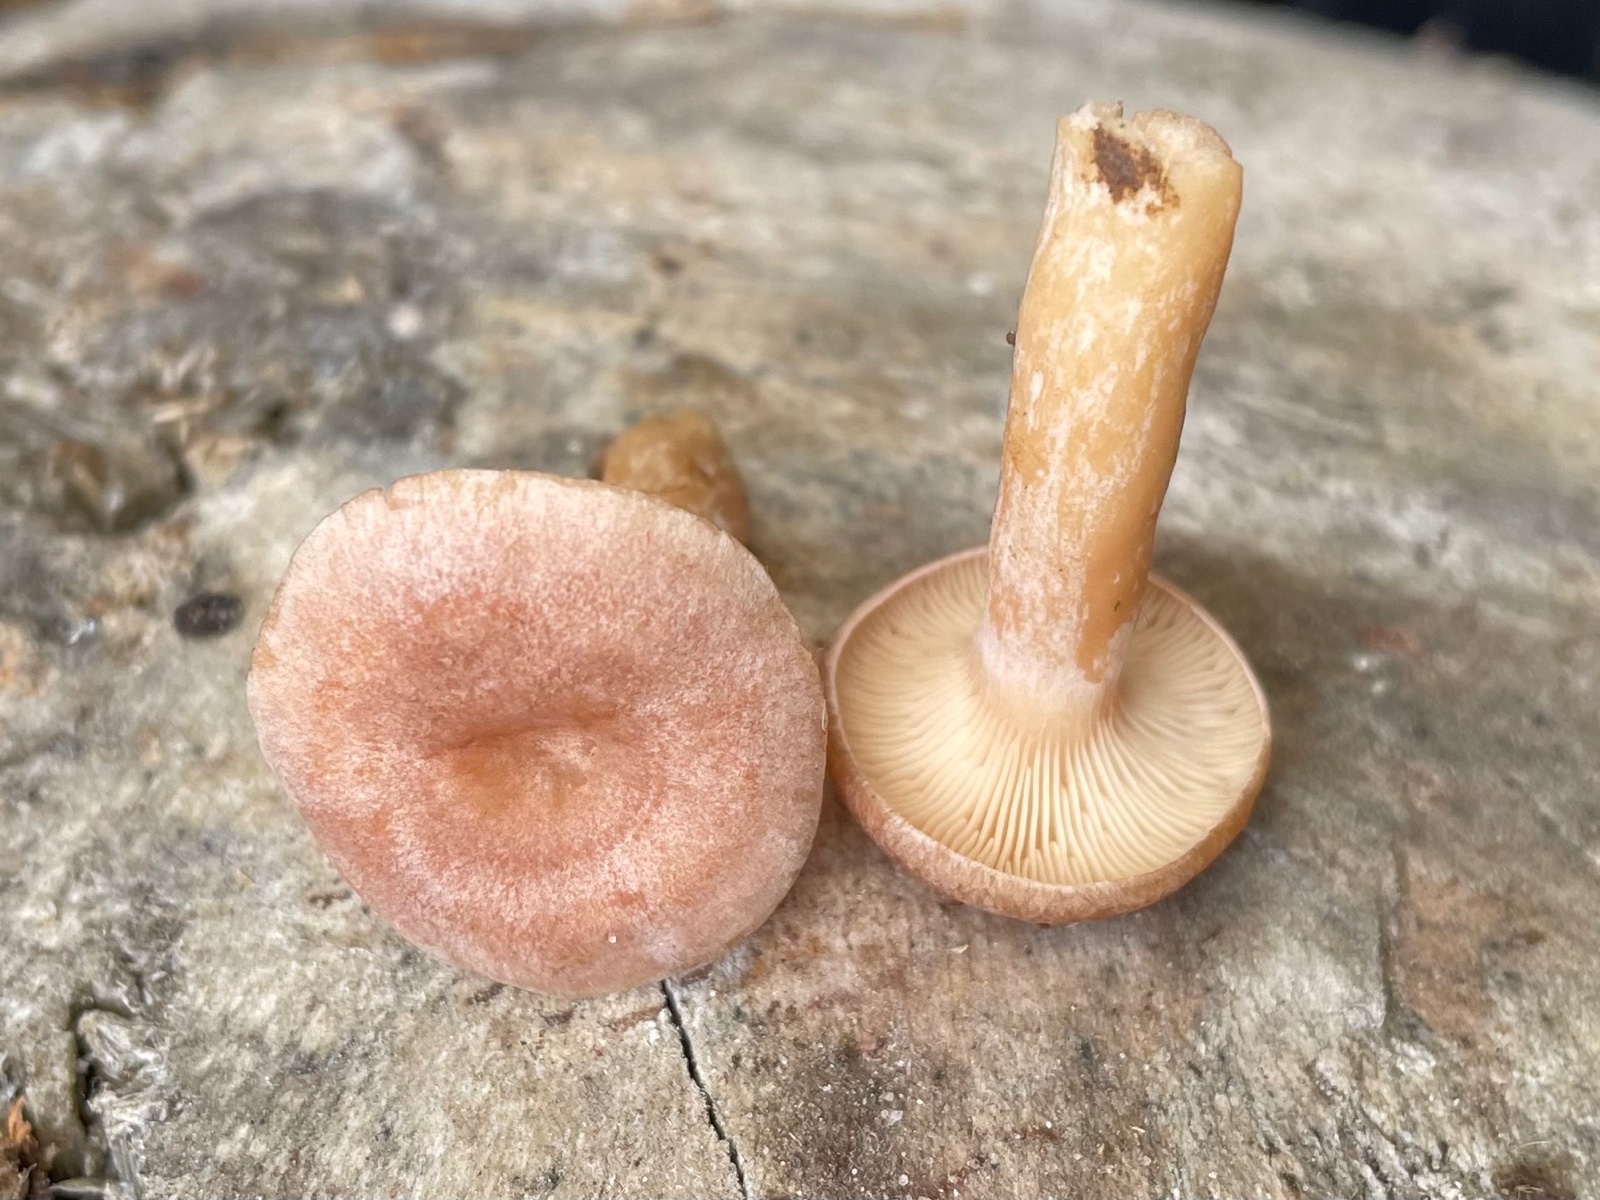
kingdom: Fungi
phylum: Basidiomycota
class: Agaricomycetes
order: Russulales
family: Russulaceae
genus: Lactarius
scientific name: Lactarius glyciosmus
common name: kokos-mælkehat
